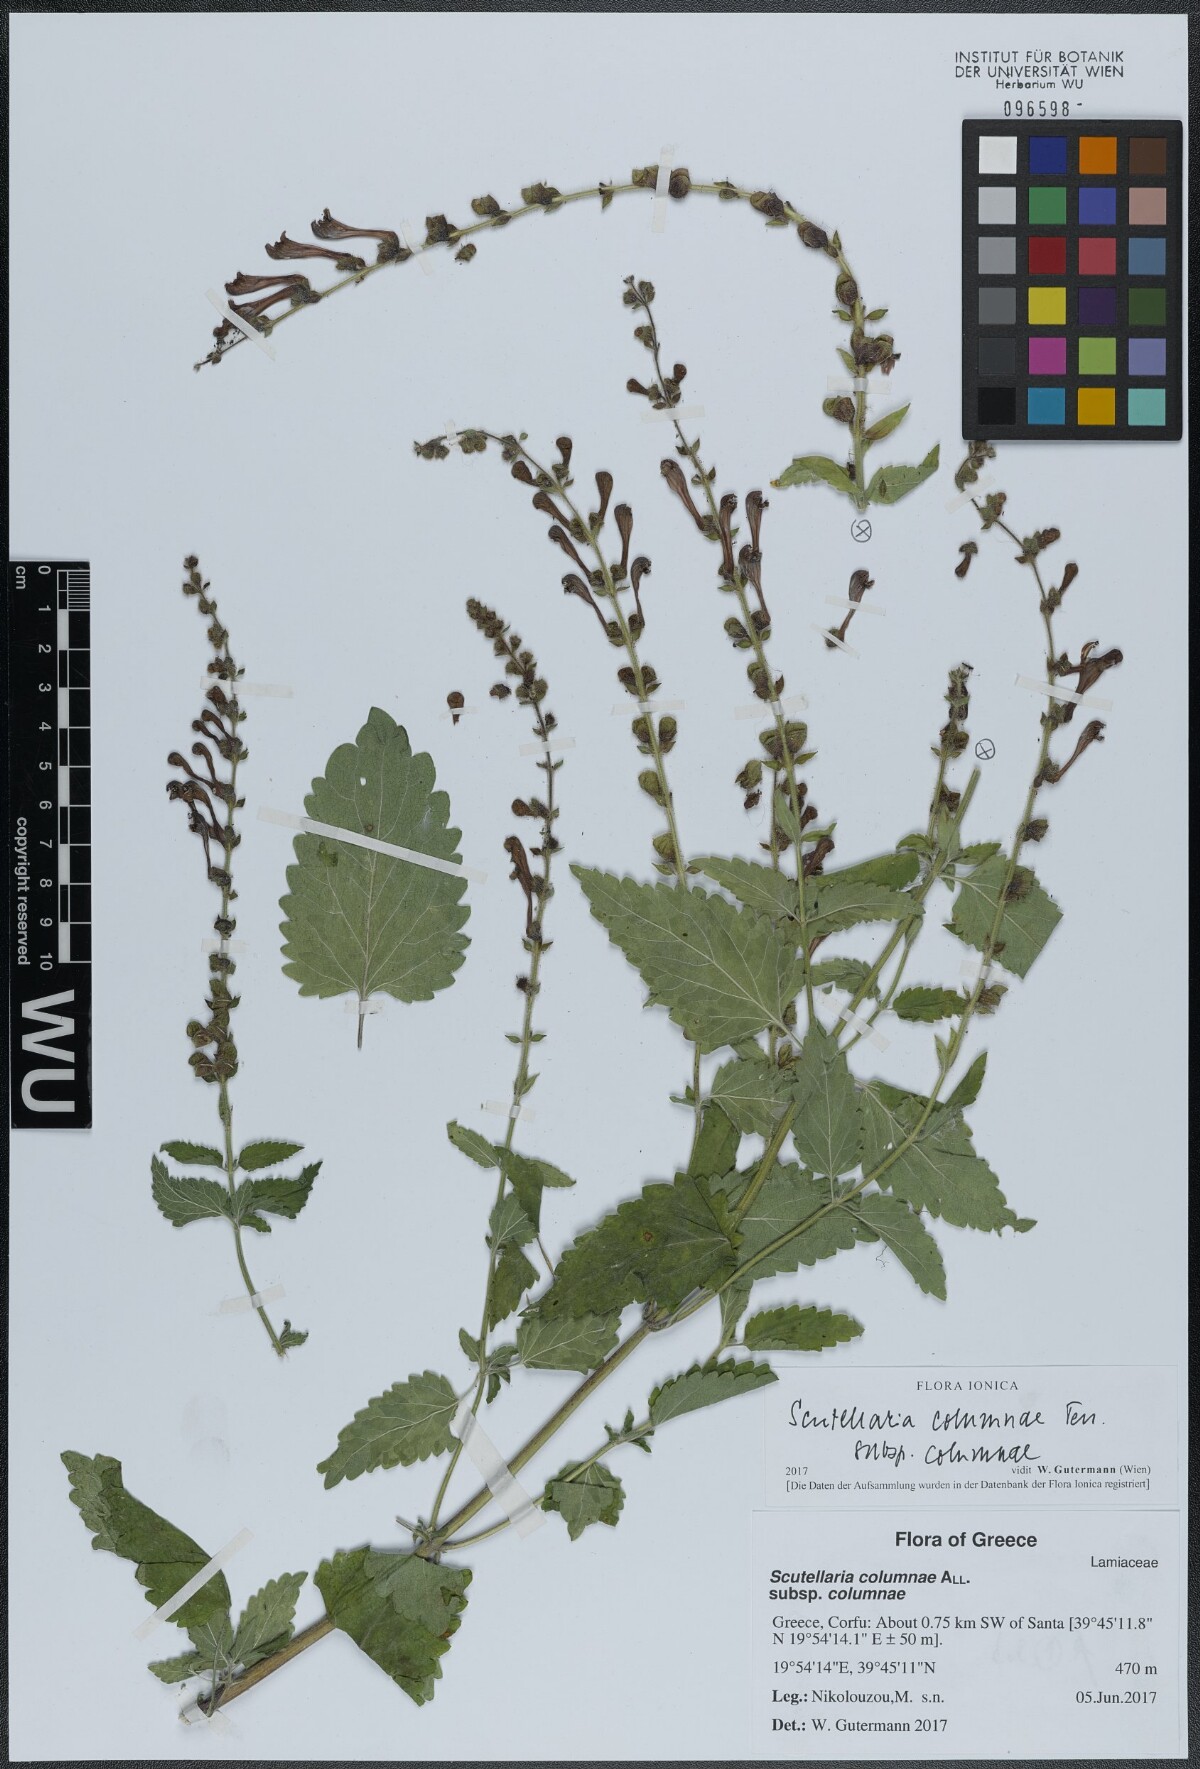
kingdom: Plantae
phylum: Tracheophyta
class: Magnoliopsida
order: Lamiales
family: Lamiaceae
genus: Scutellaria
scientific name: Scutellaria columnae
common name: Large skullcap
